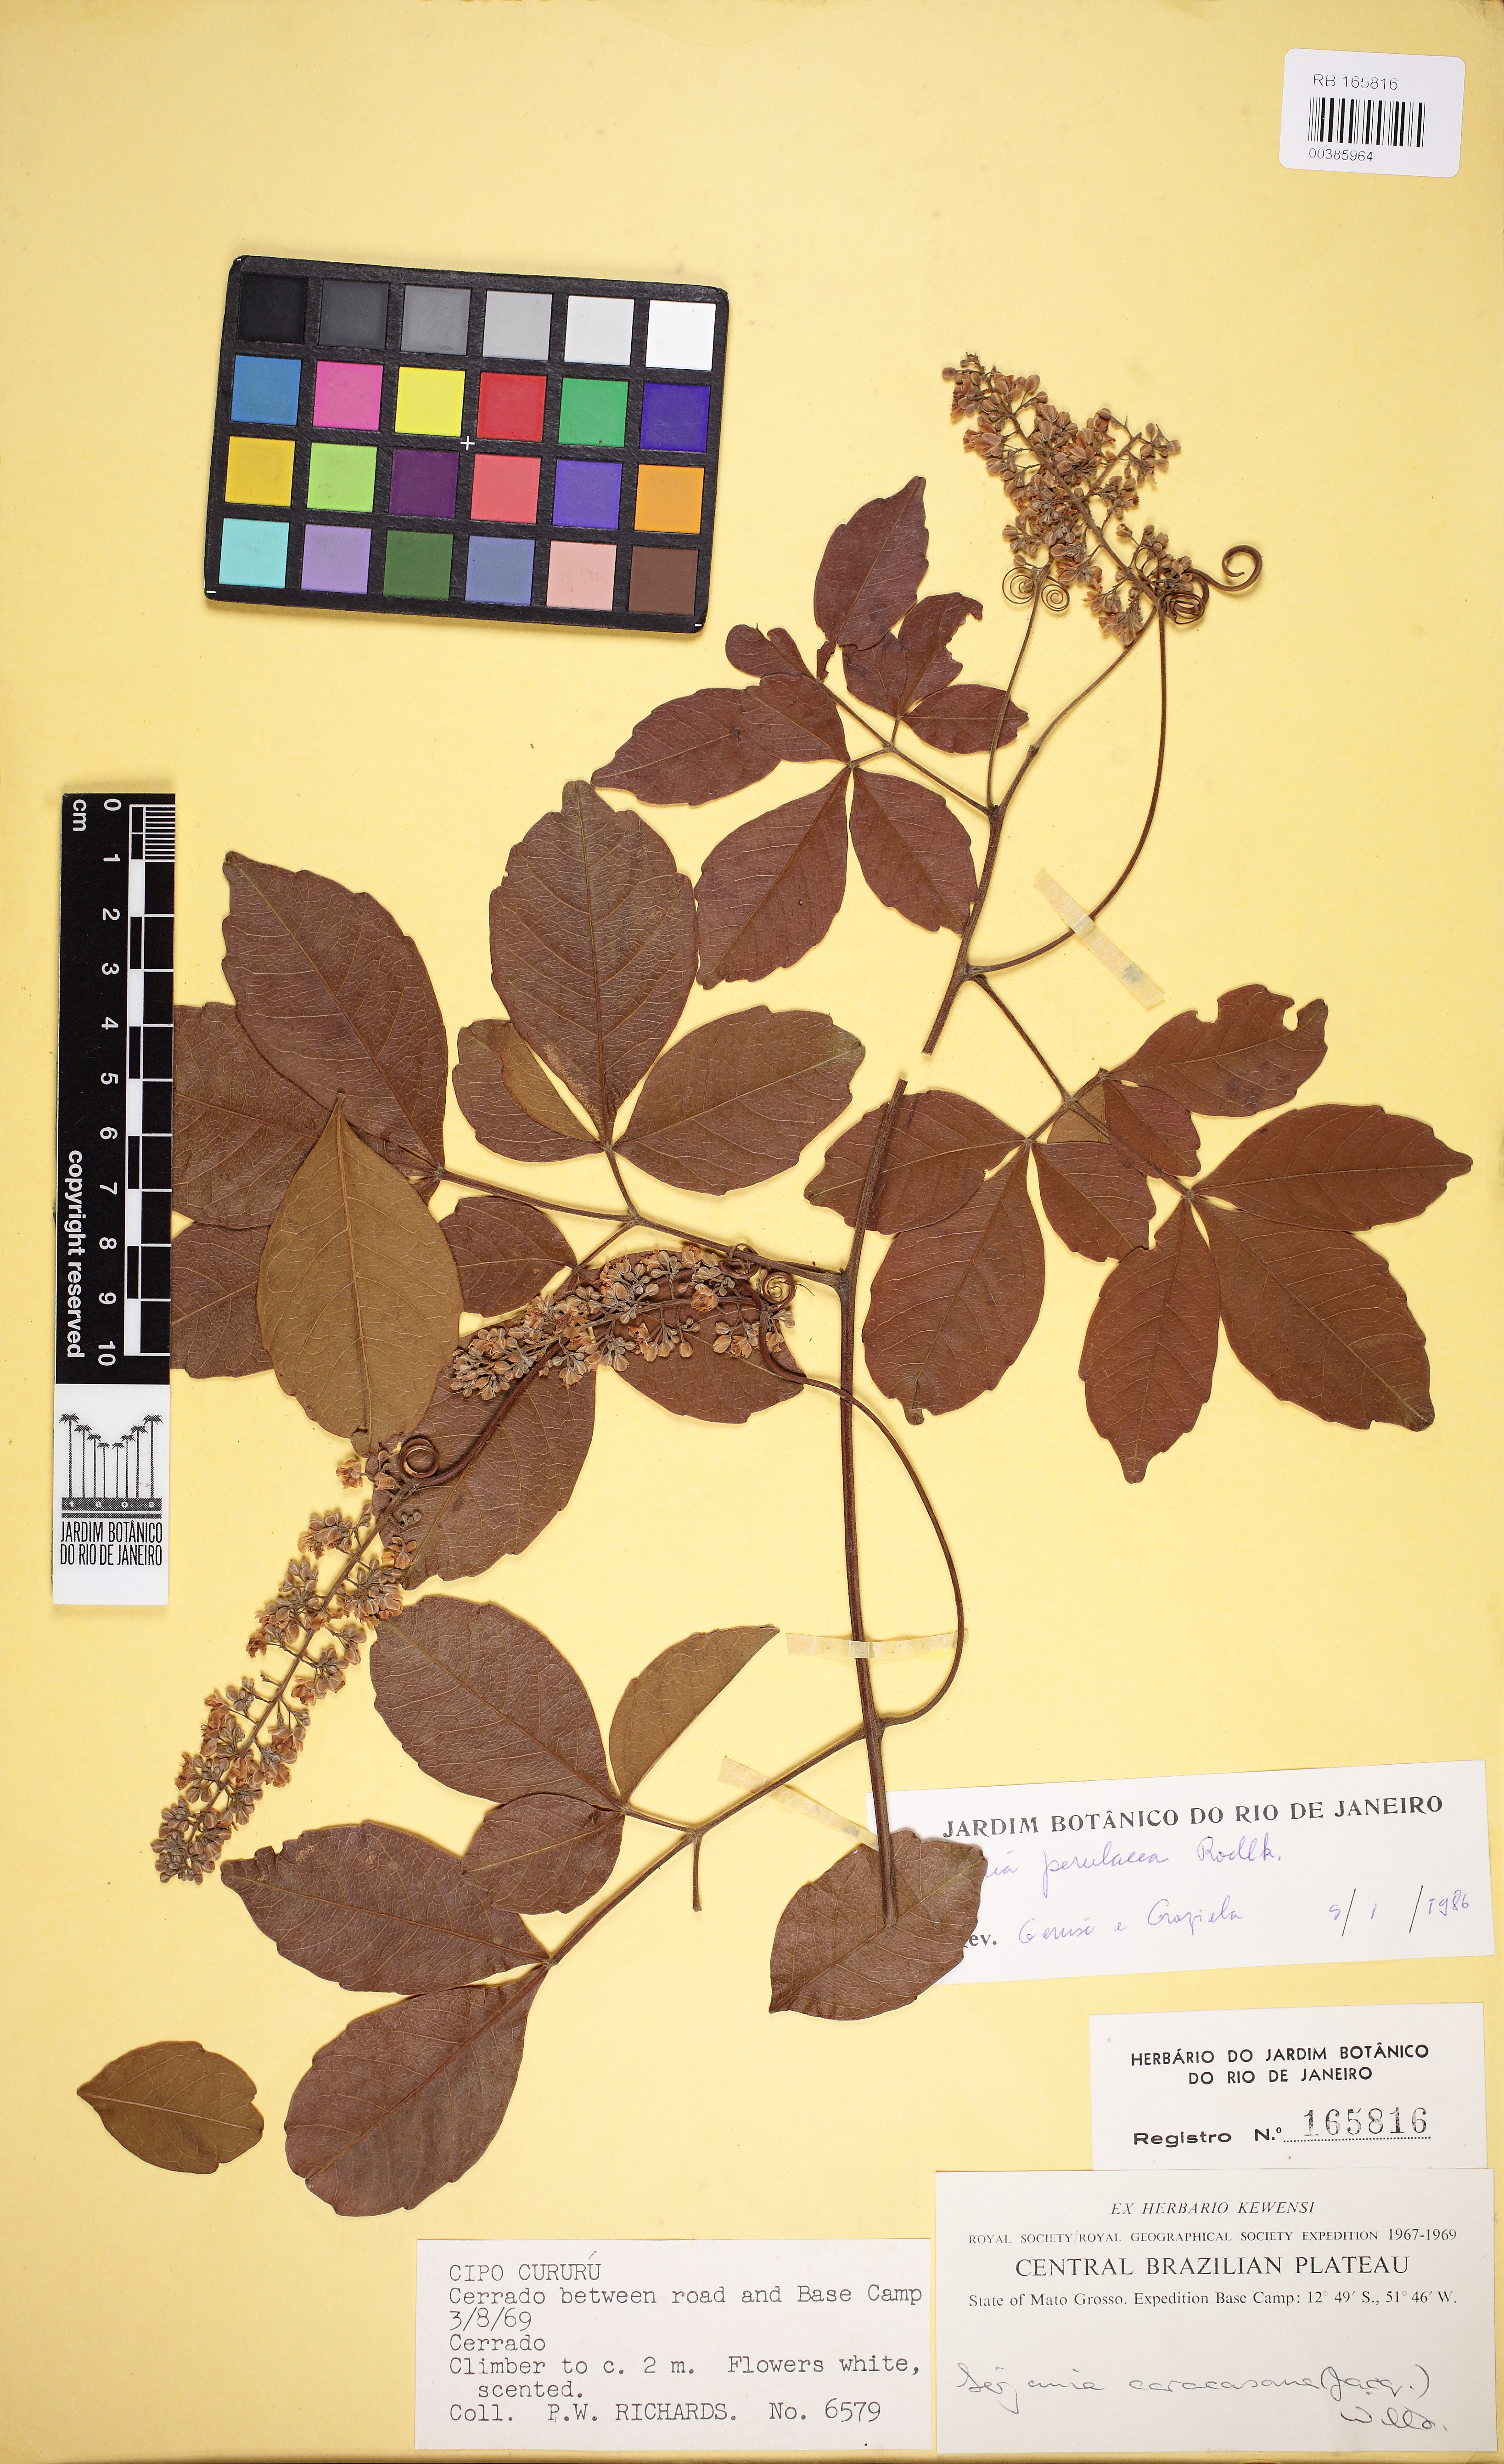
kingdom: Plantae
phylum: Tracheophyta
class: Magnoliopsida
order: Sapindales
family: Sapindaceae
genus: Serjania
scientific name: Serjania perulacea
